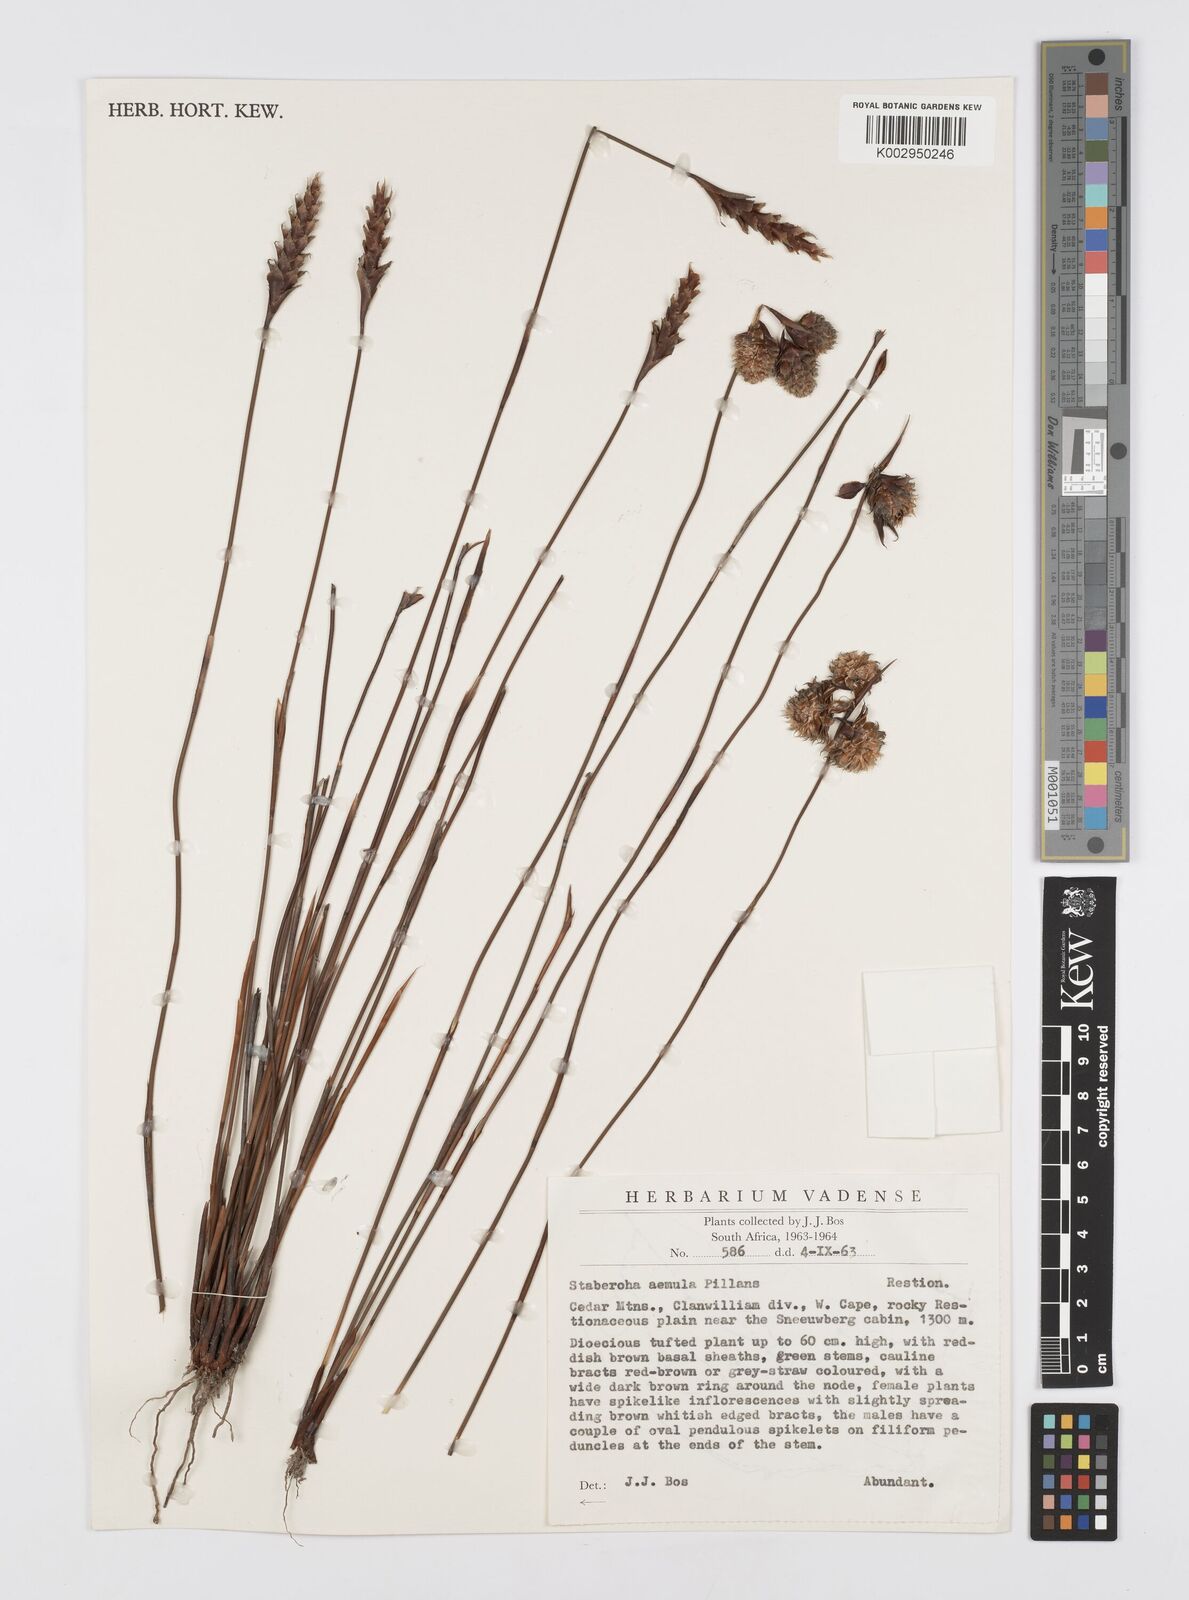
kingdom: Plantae
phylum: Tracheophyta
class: Liliopsida
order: Poales
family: Restionaceae
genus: Staberoha
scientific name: Staberoha aemula
